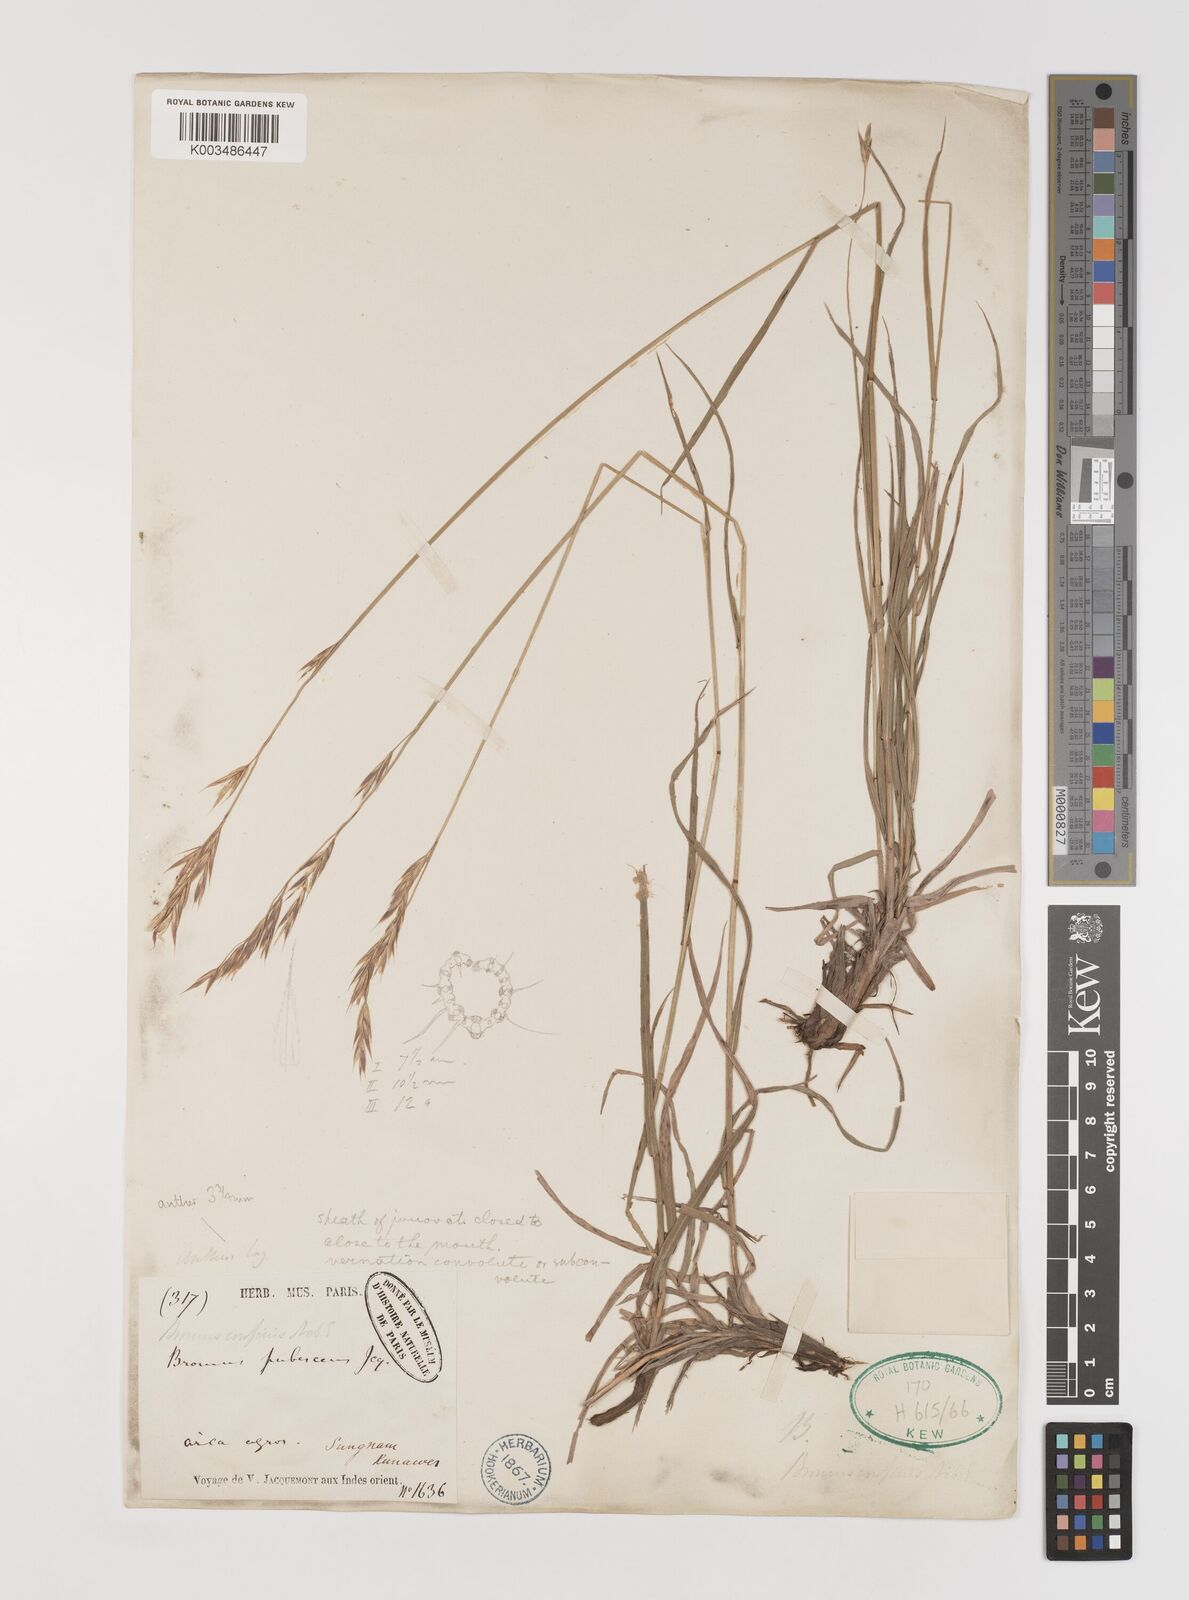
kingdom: Plantae
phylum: Tracheophyta
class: Liliopsida
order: Poales
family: Poaceae
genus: Bromus
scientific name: Bromus confinis
